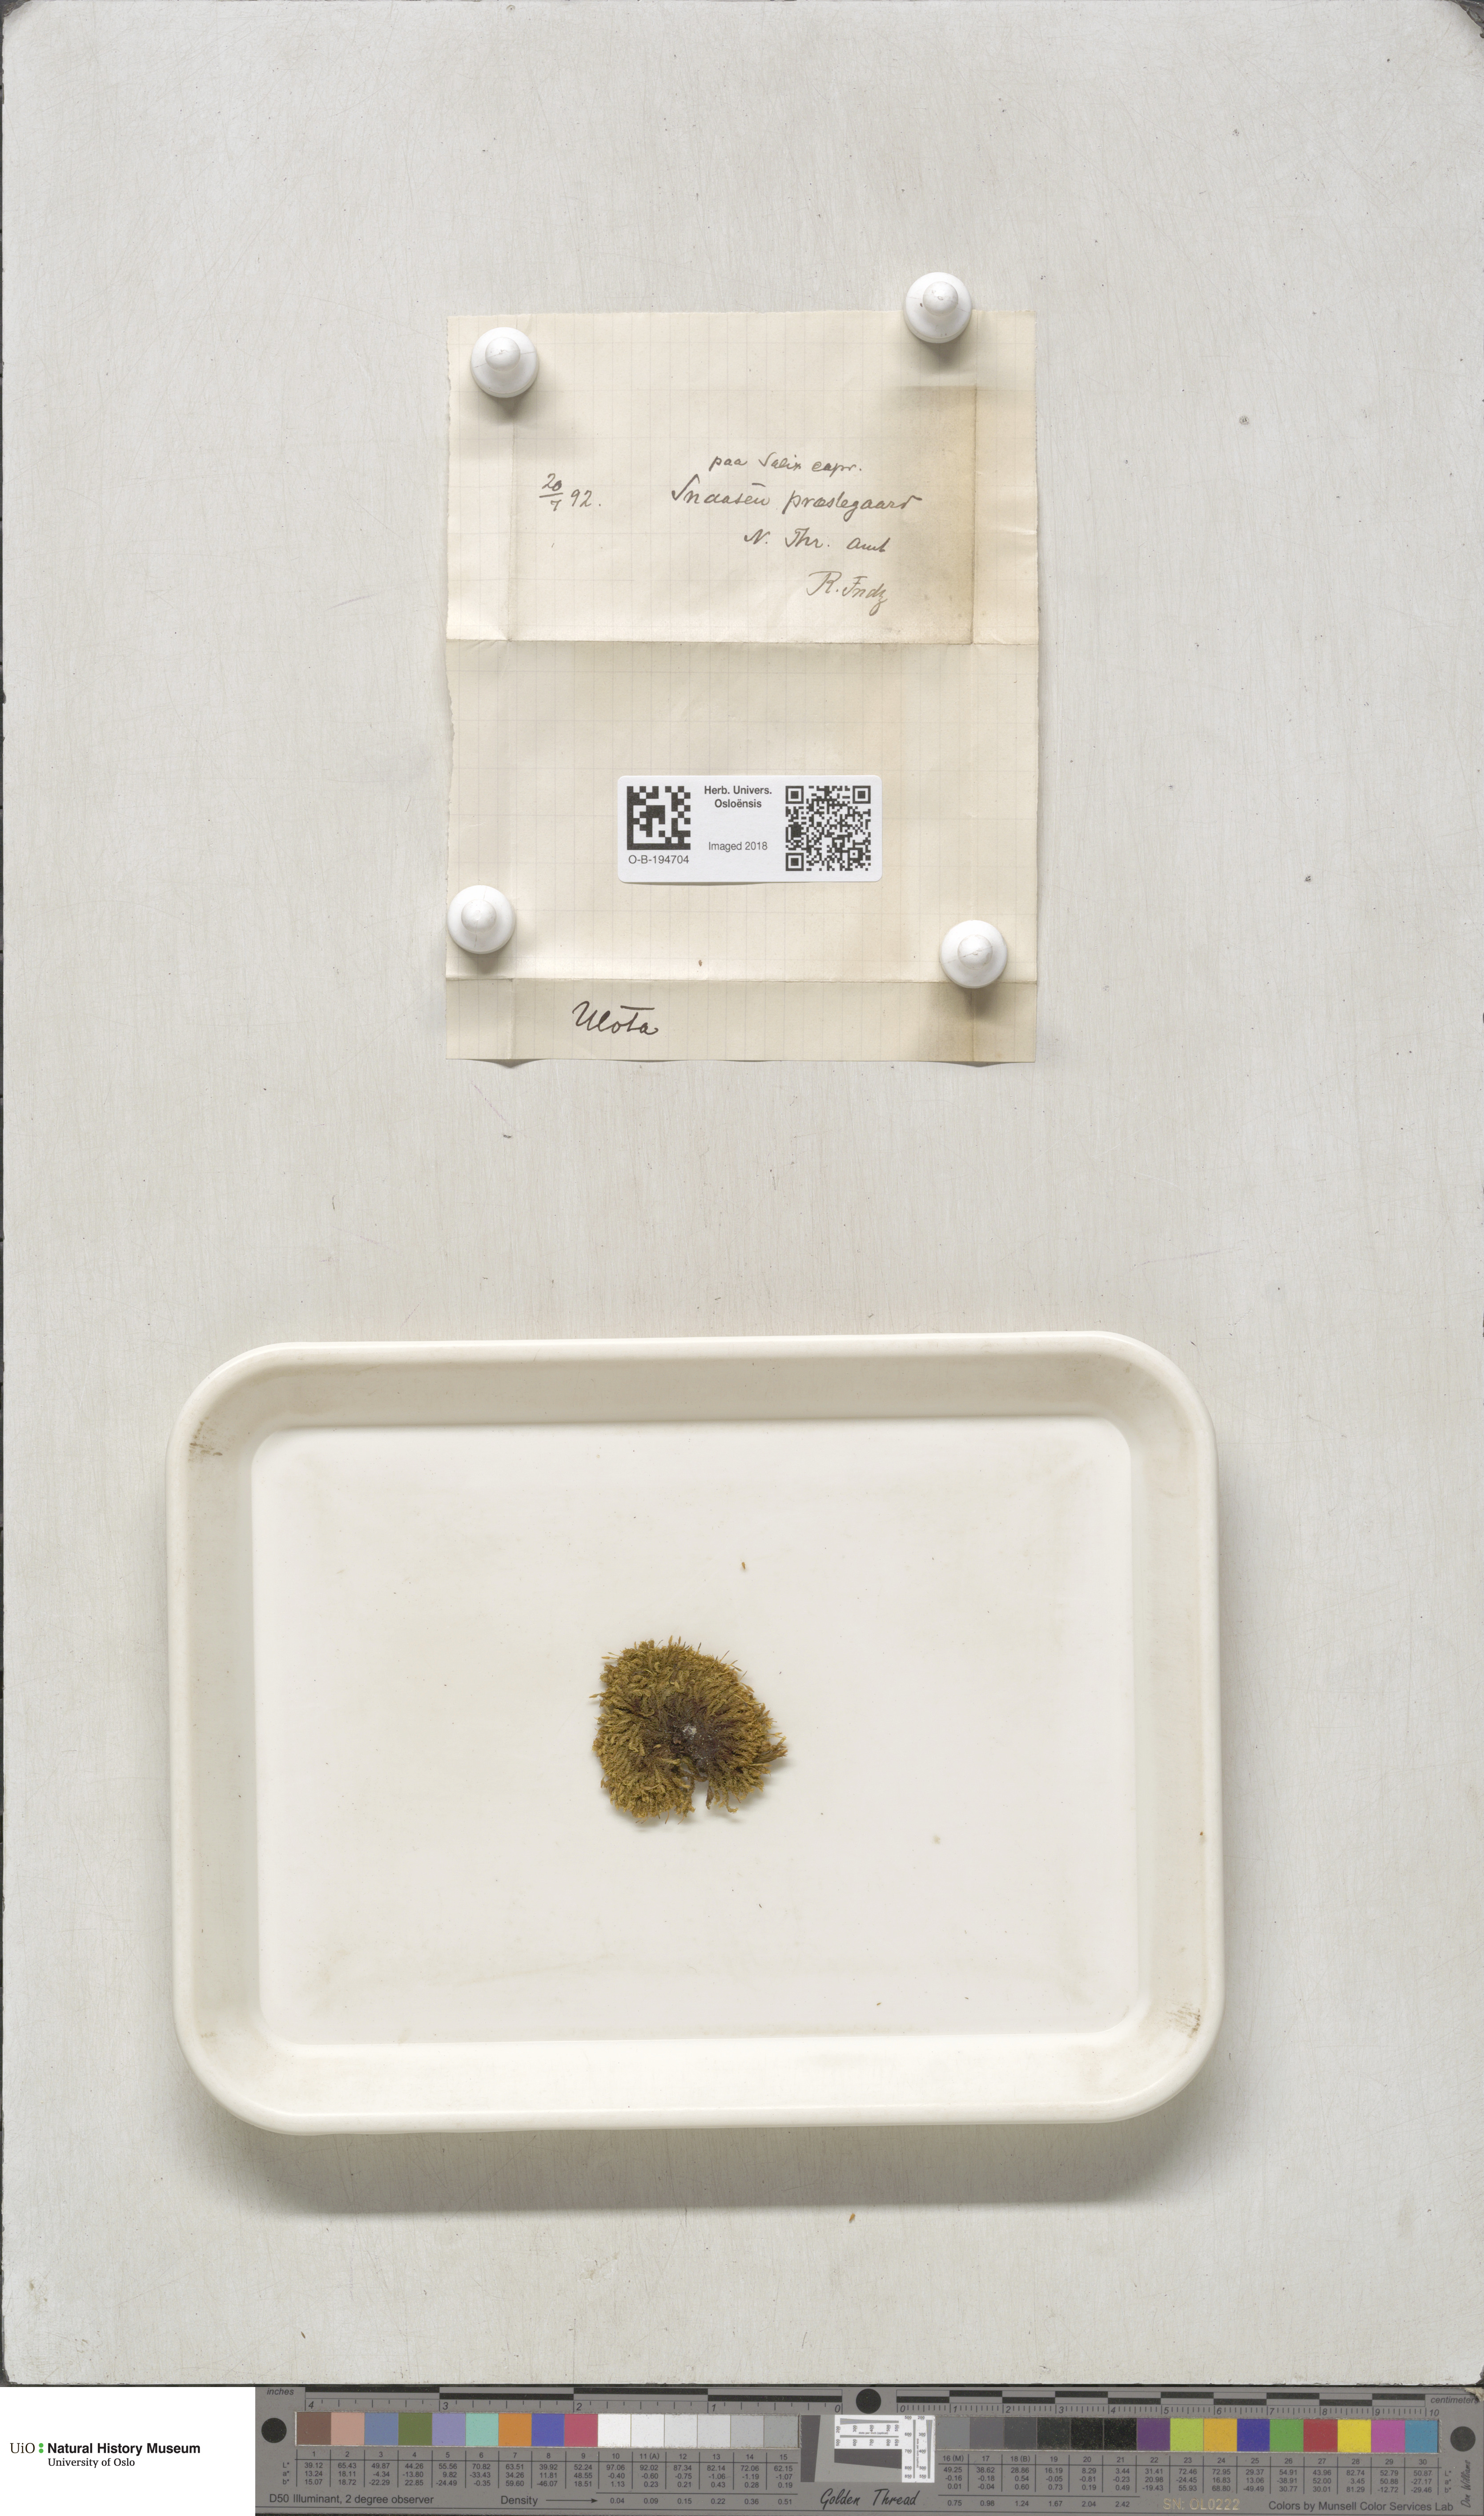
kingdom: Plantae
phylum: Bryophyta
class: Bryopsida
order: Orthotrichales
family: Orthotrichaceae
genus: Ulota
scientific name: Ulota
